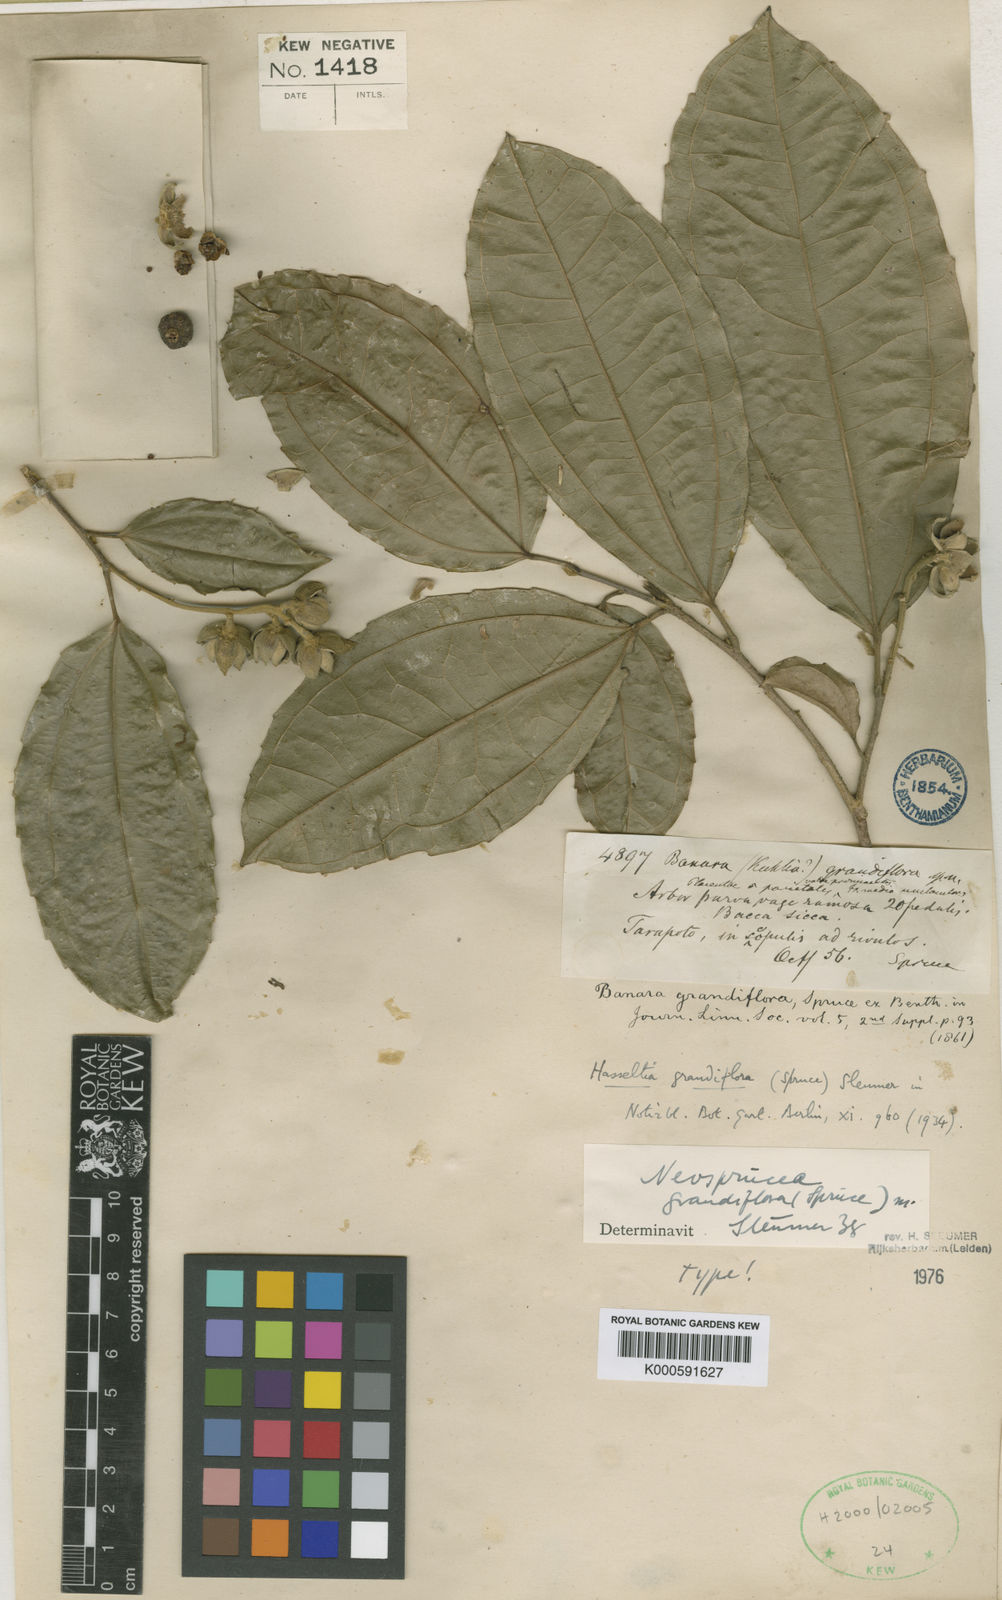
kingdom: Plantae
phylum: Tracheophyta
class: Magnoliopsida
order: Malpighiales
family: Salicaceae
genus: Neosprucea
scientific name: Neosprucea grandiflora
